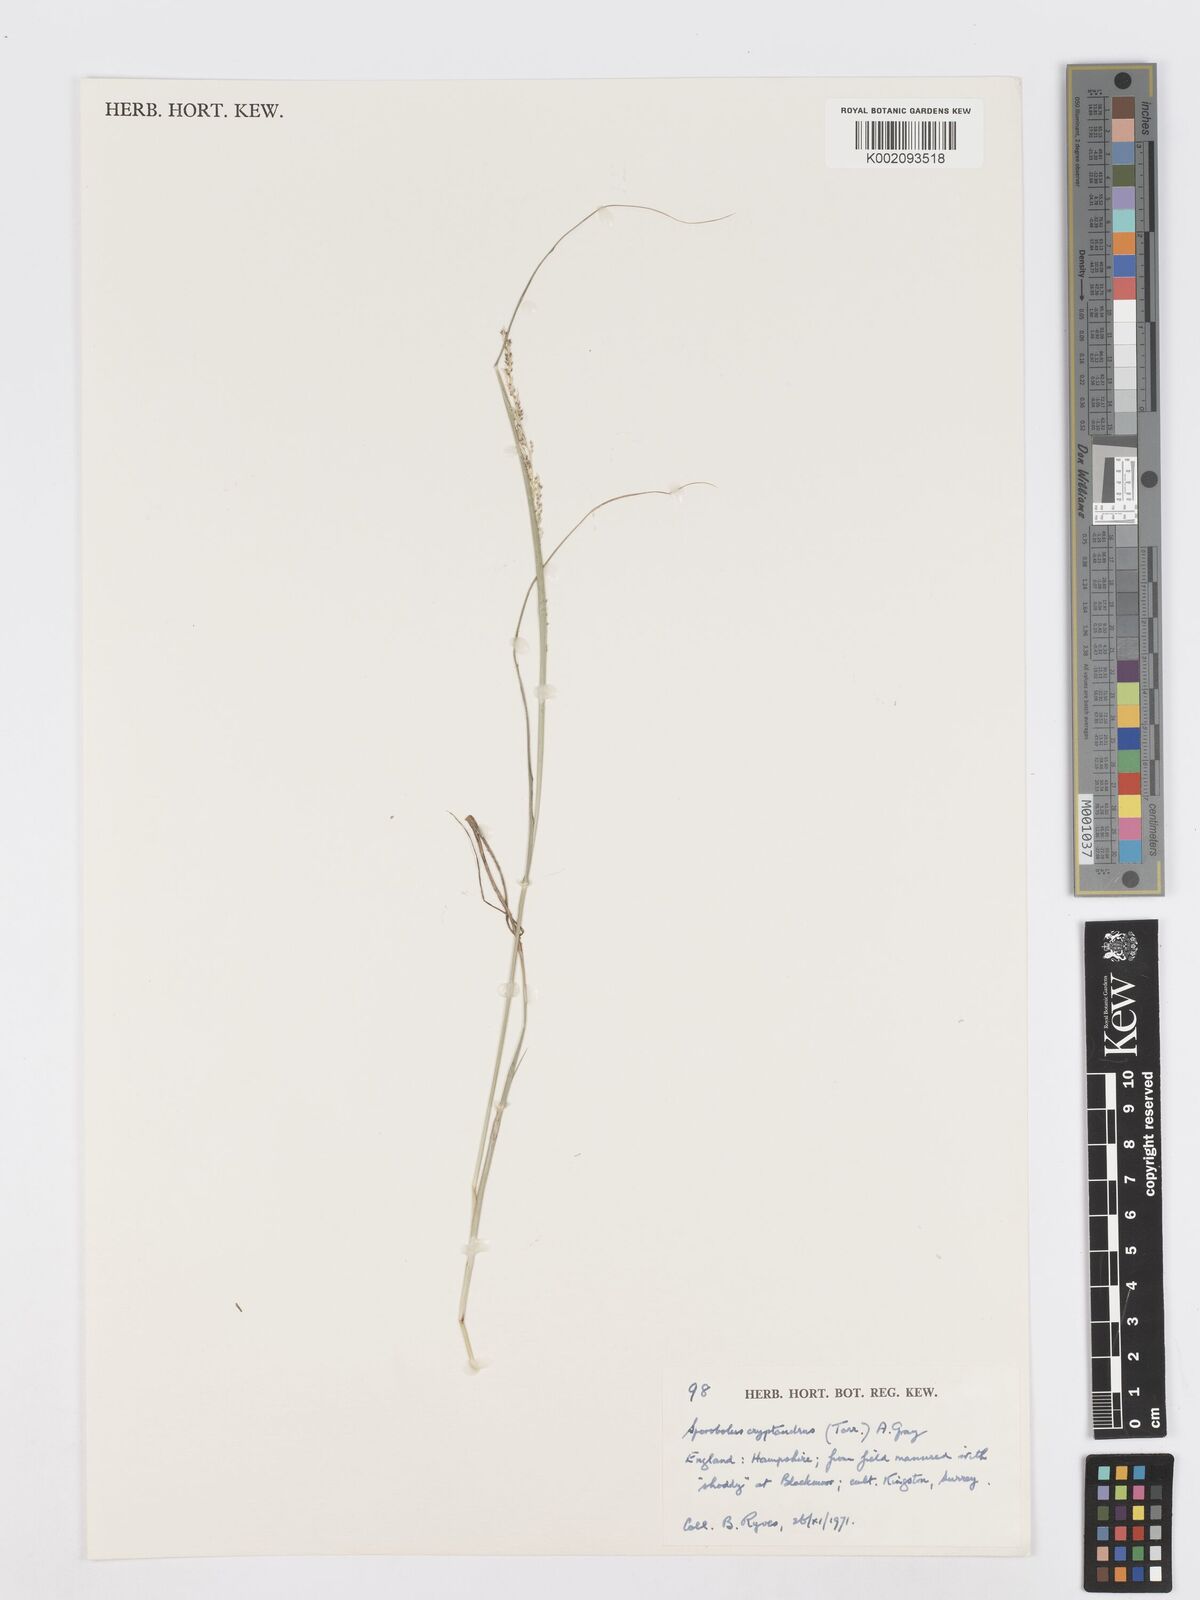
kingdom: Plantae
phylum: Tracheophyta
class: Liliopsida
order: Poales
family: Poaceae
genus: Sporobolus
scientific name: Sporobolus cryptandrus
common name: Sand dropseed
